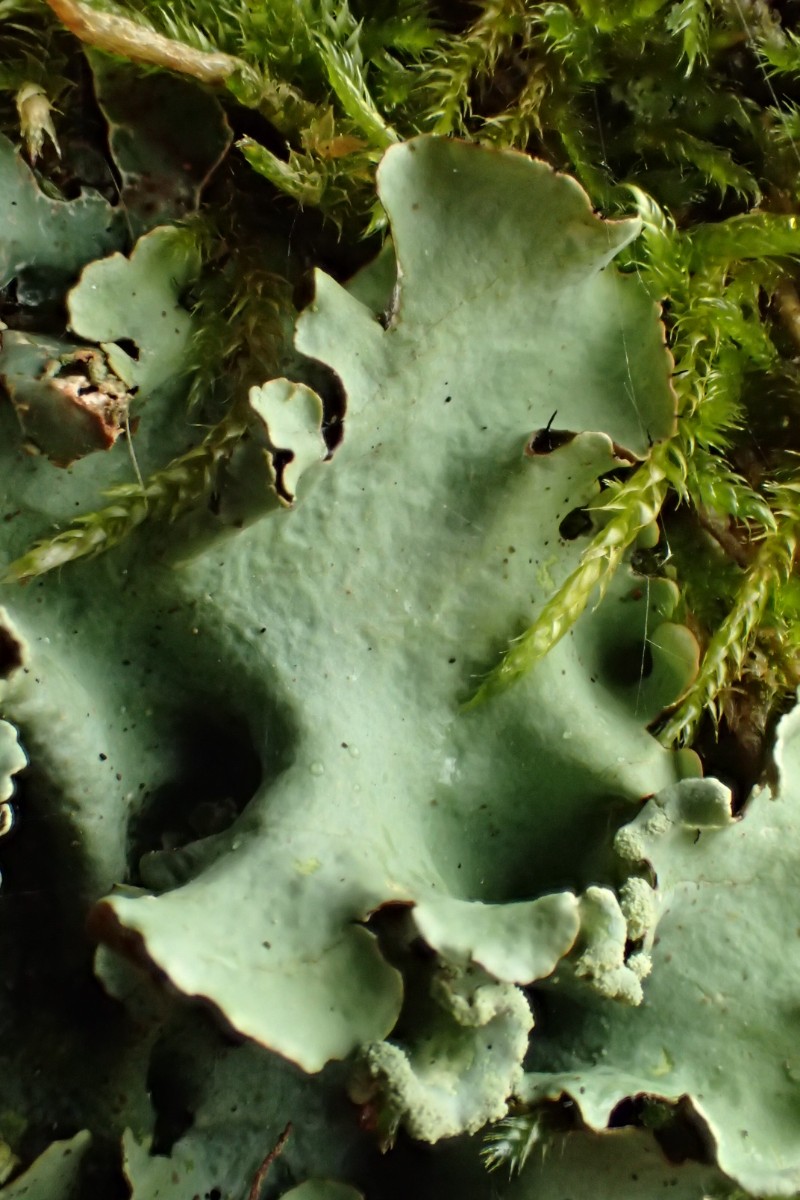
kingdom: Fungi
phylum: Ascomycota
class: Lecanoromycetes
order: Lecanorales
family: Parmeliaceae
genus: Parmotrema
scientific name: Parmotrema perlatum
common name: trådet skållav
